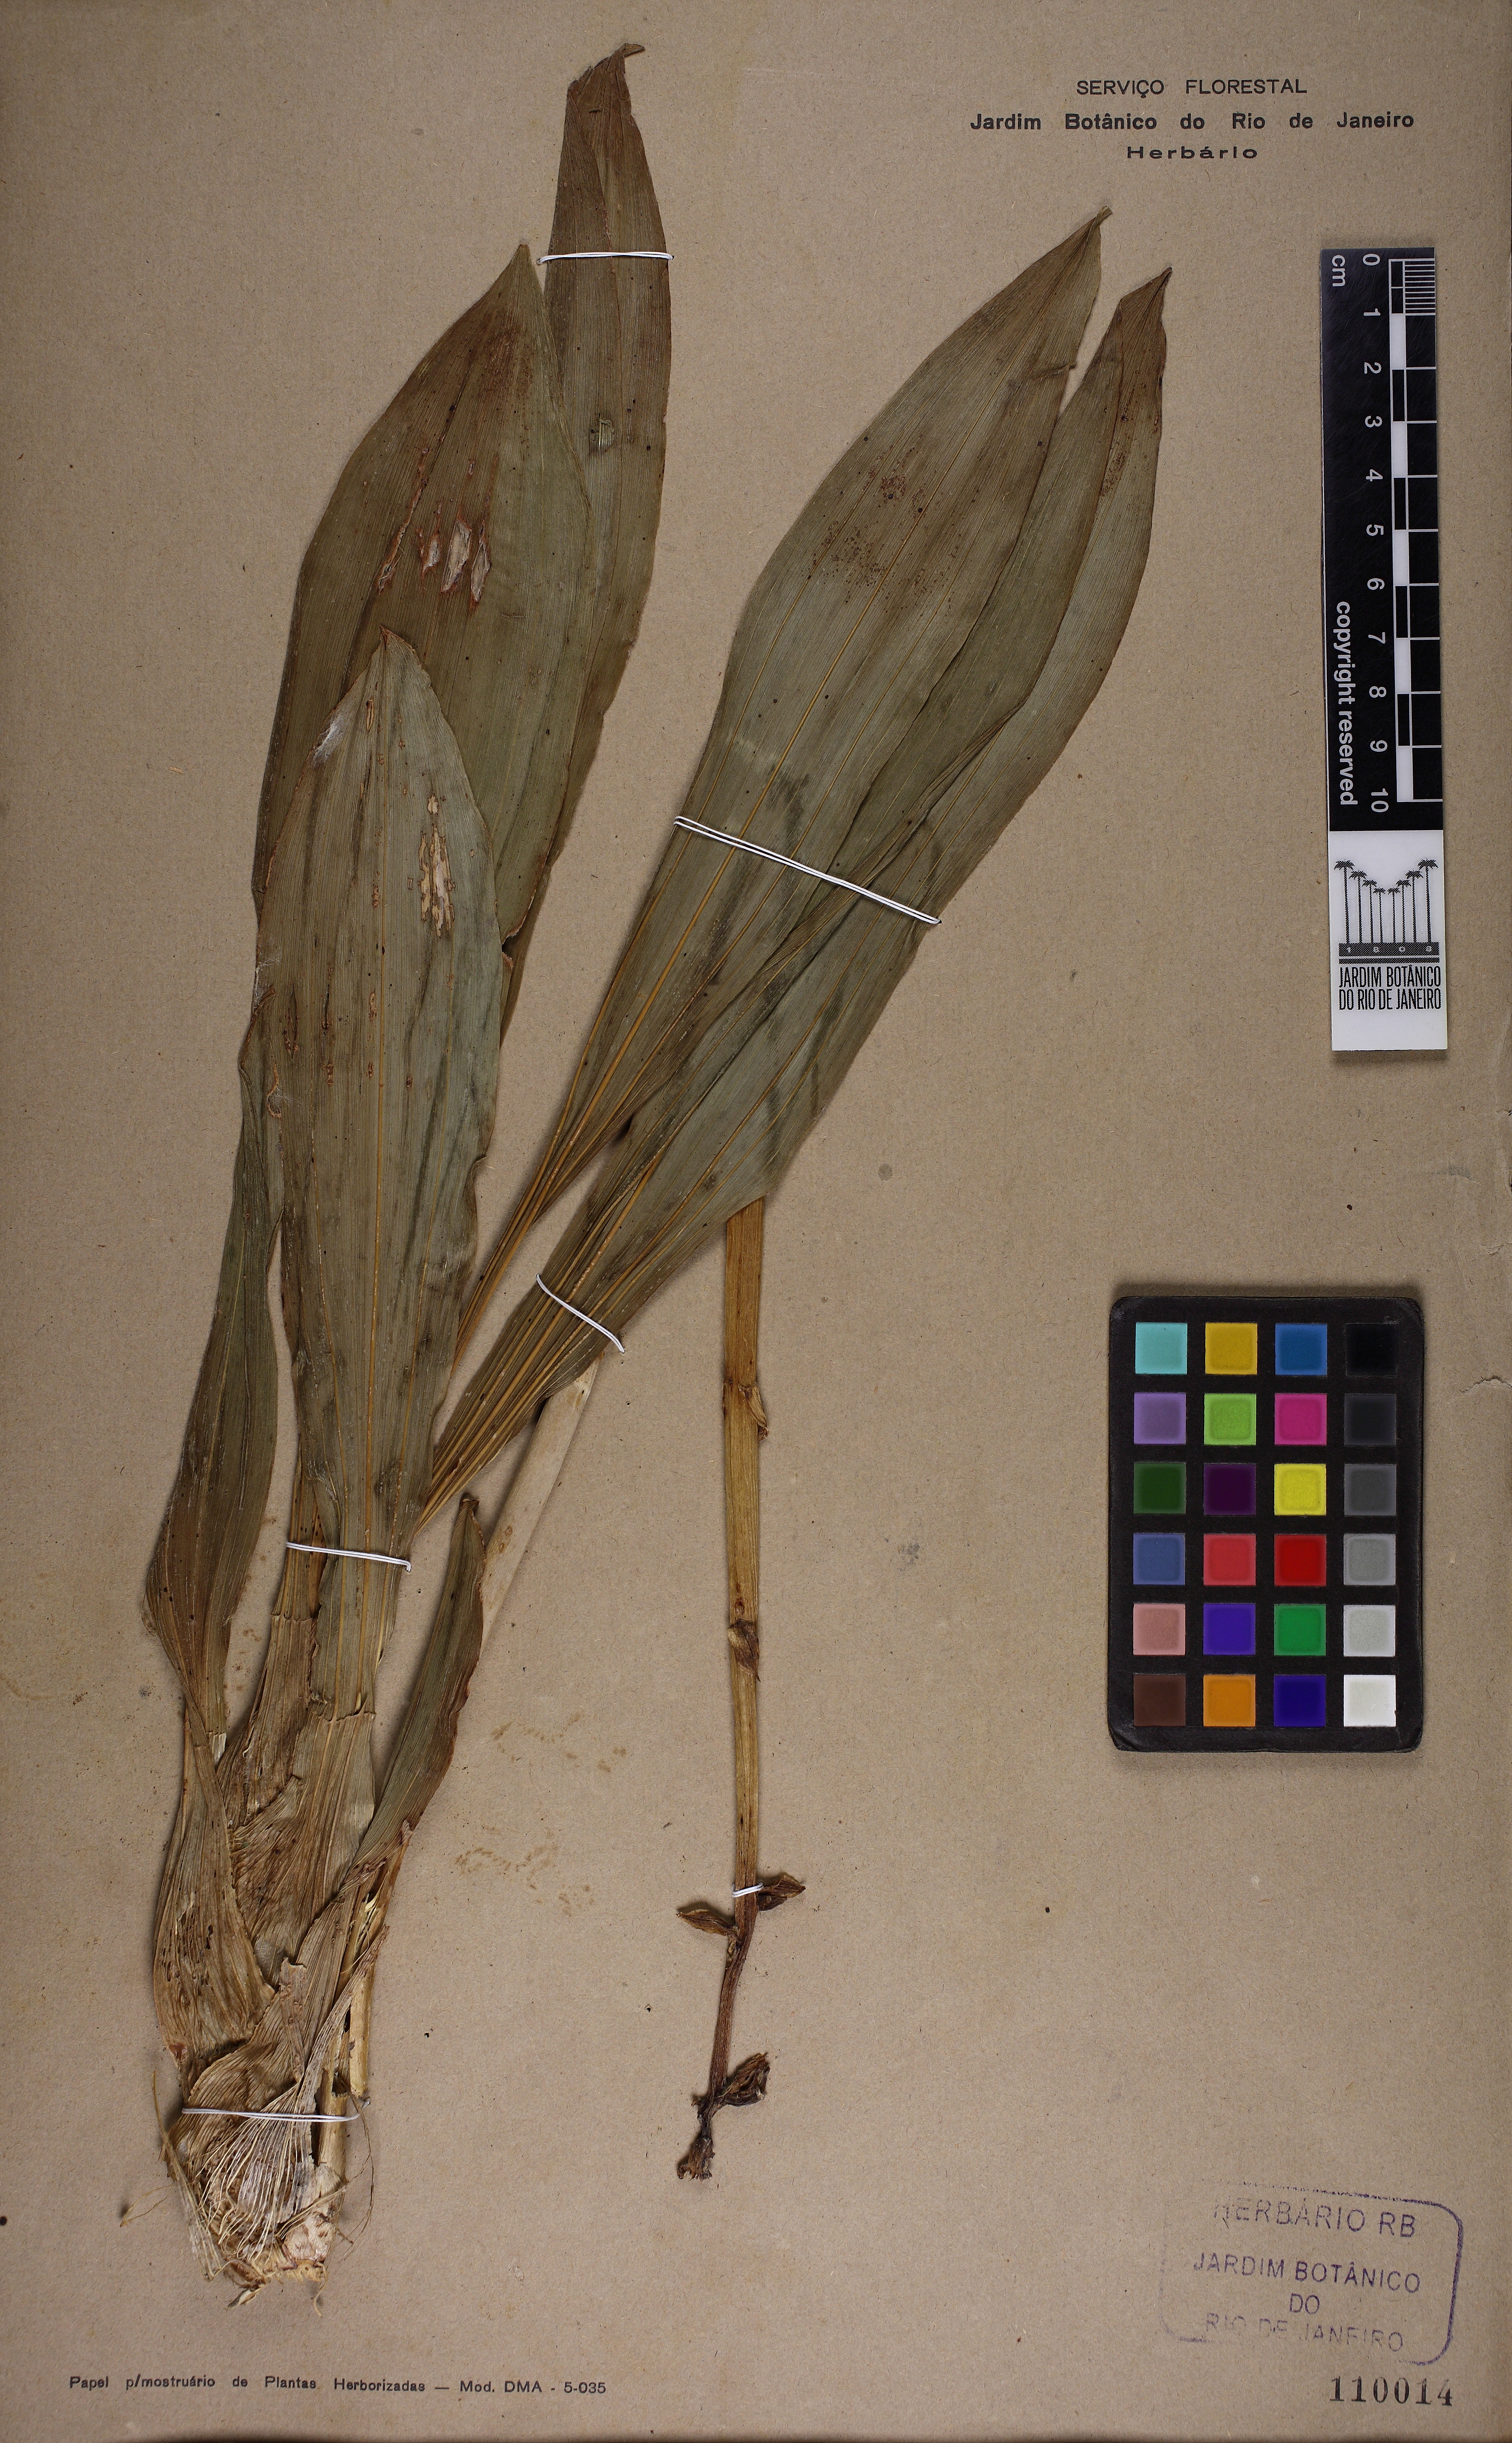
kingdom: Plantae
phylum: Tracheophyta
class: Liliopsida
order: Asparagales
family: Orchidaceae
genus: Catasetum
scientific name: Catasetum discolor
